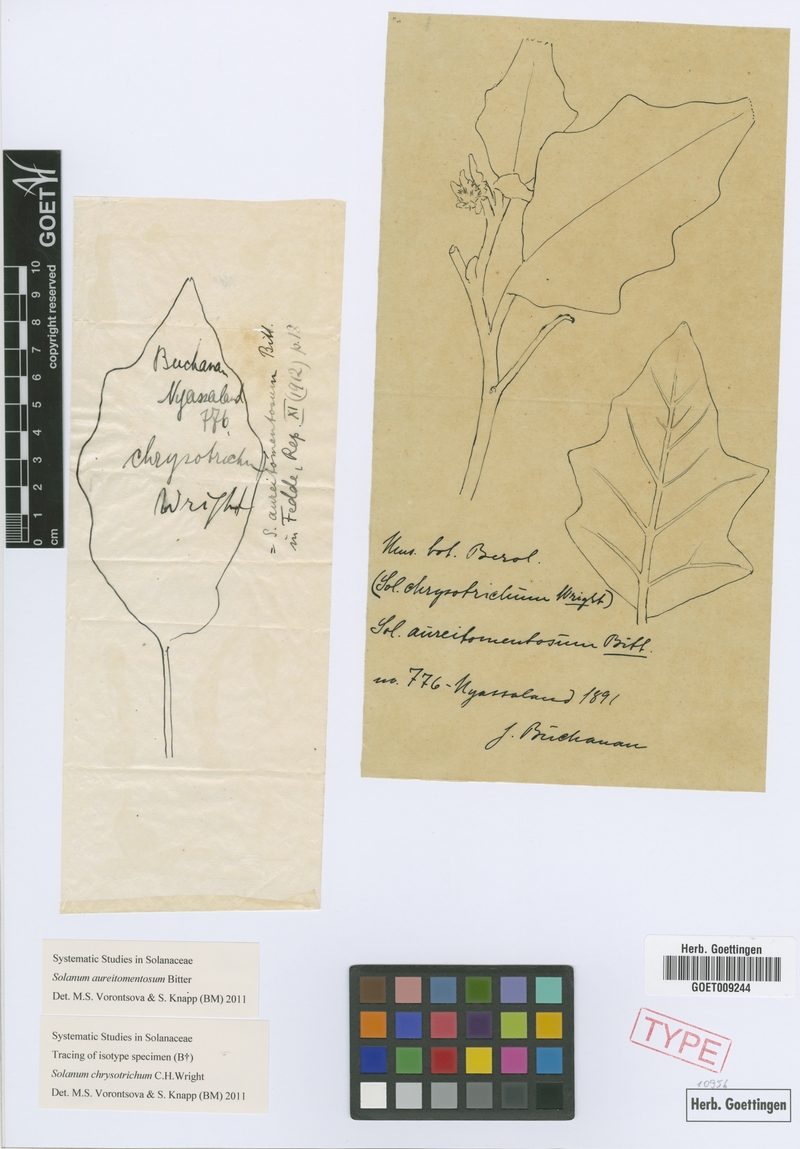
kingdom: Plantae
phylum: Tracheophyta
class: Magnoliopsida
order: Solanales
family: Solanaceae
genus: Solanum
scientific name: Solanum aureitomentosum
